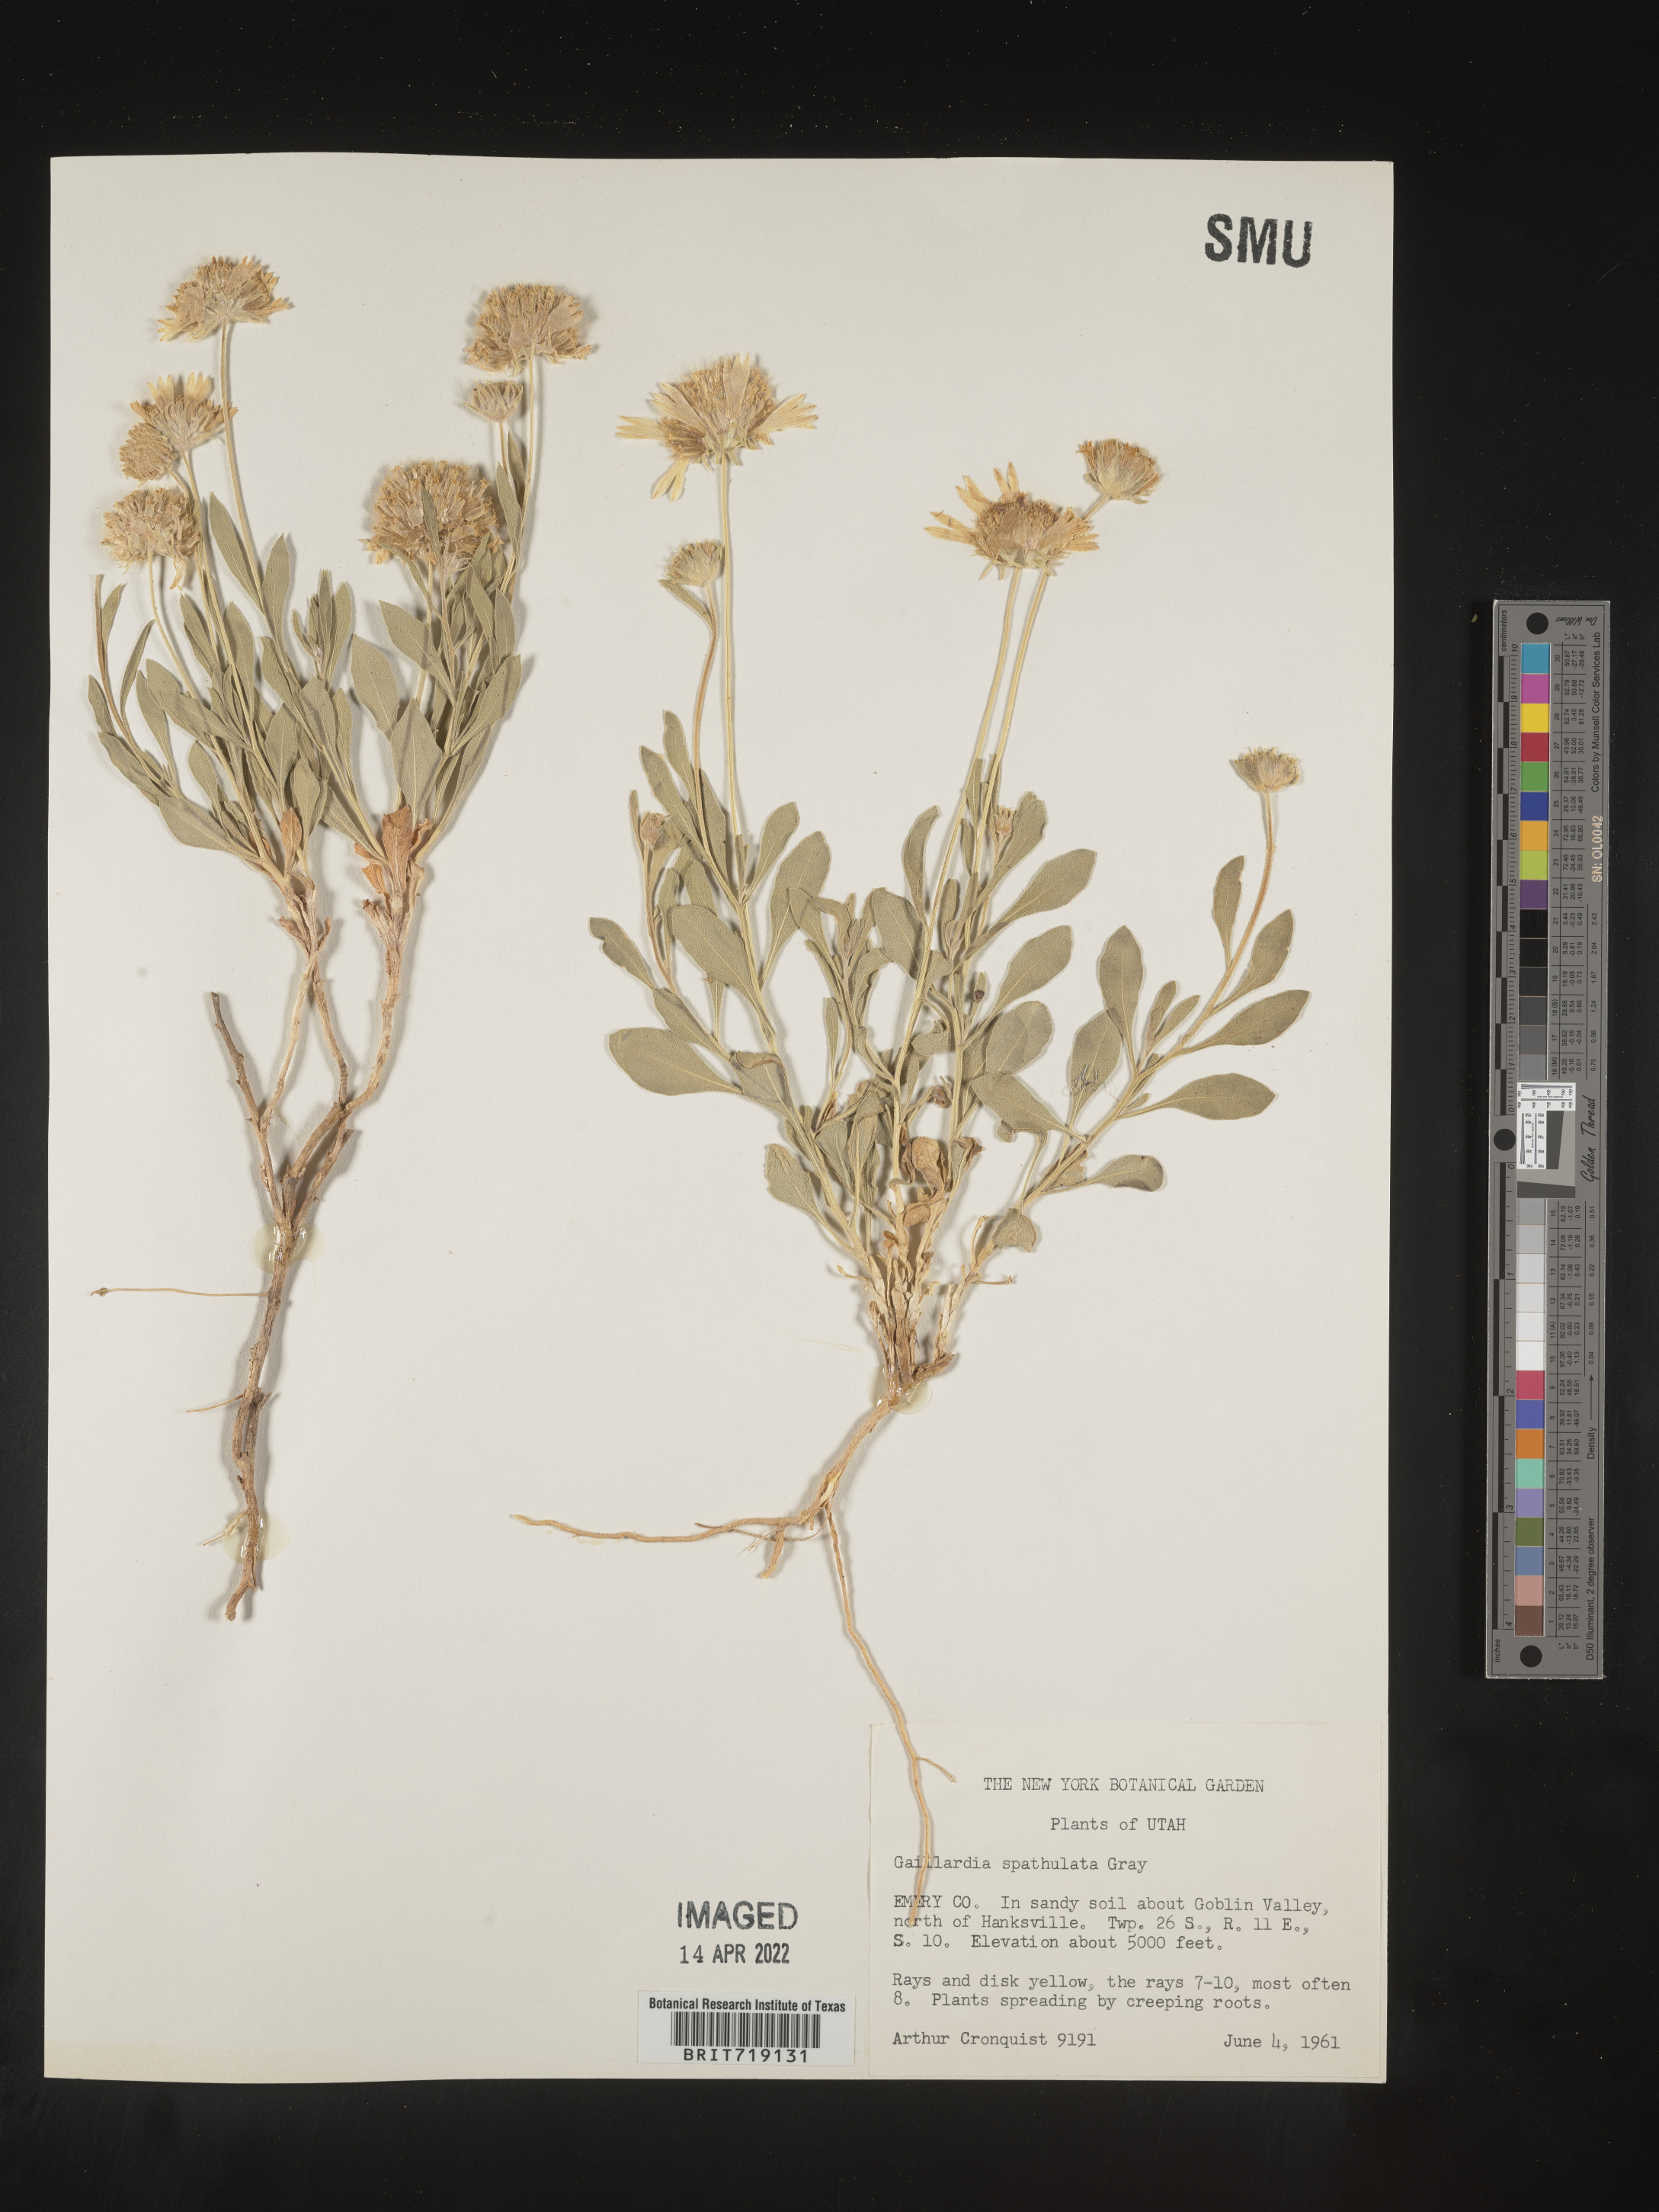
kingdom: Plantae
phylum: Tracheophyta
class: Magnoliopsida
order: Asterales
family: Asteraceae
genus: Gaillardia
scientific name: Gaillardia
